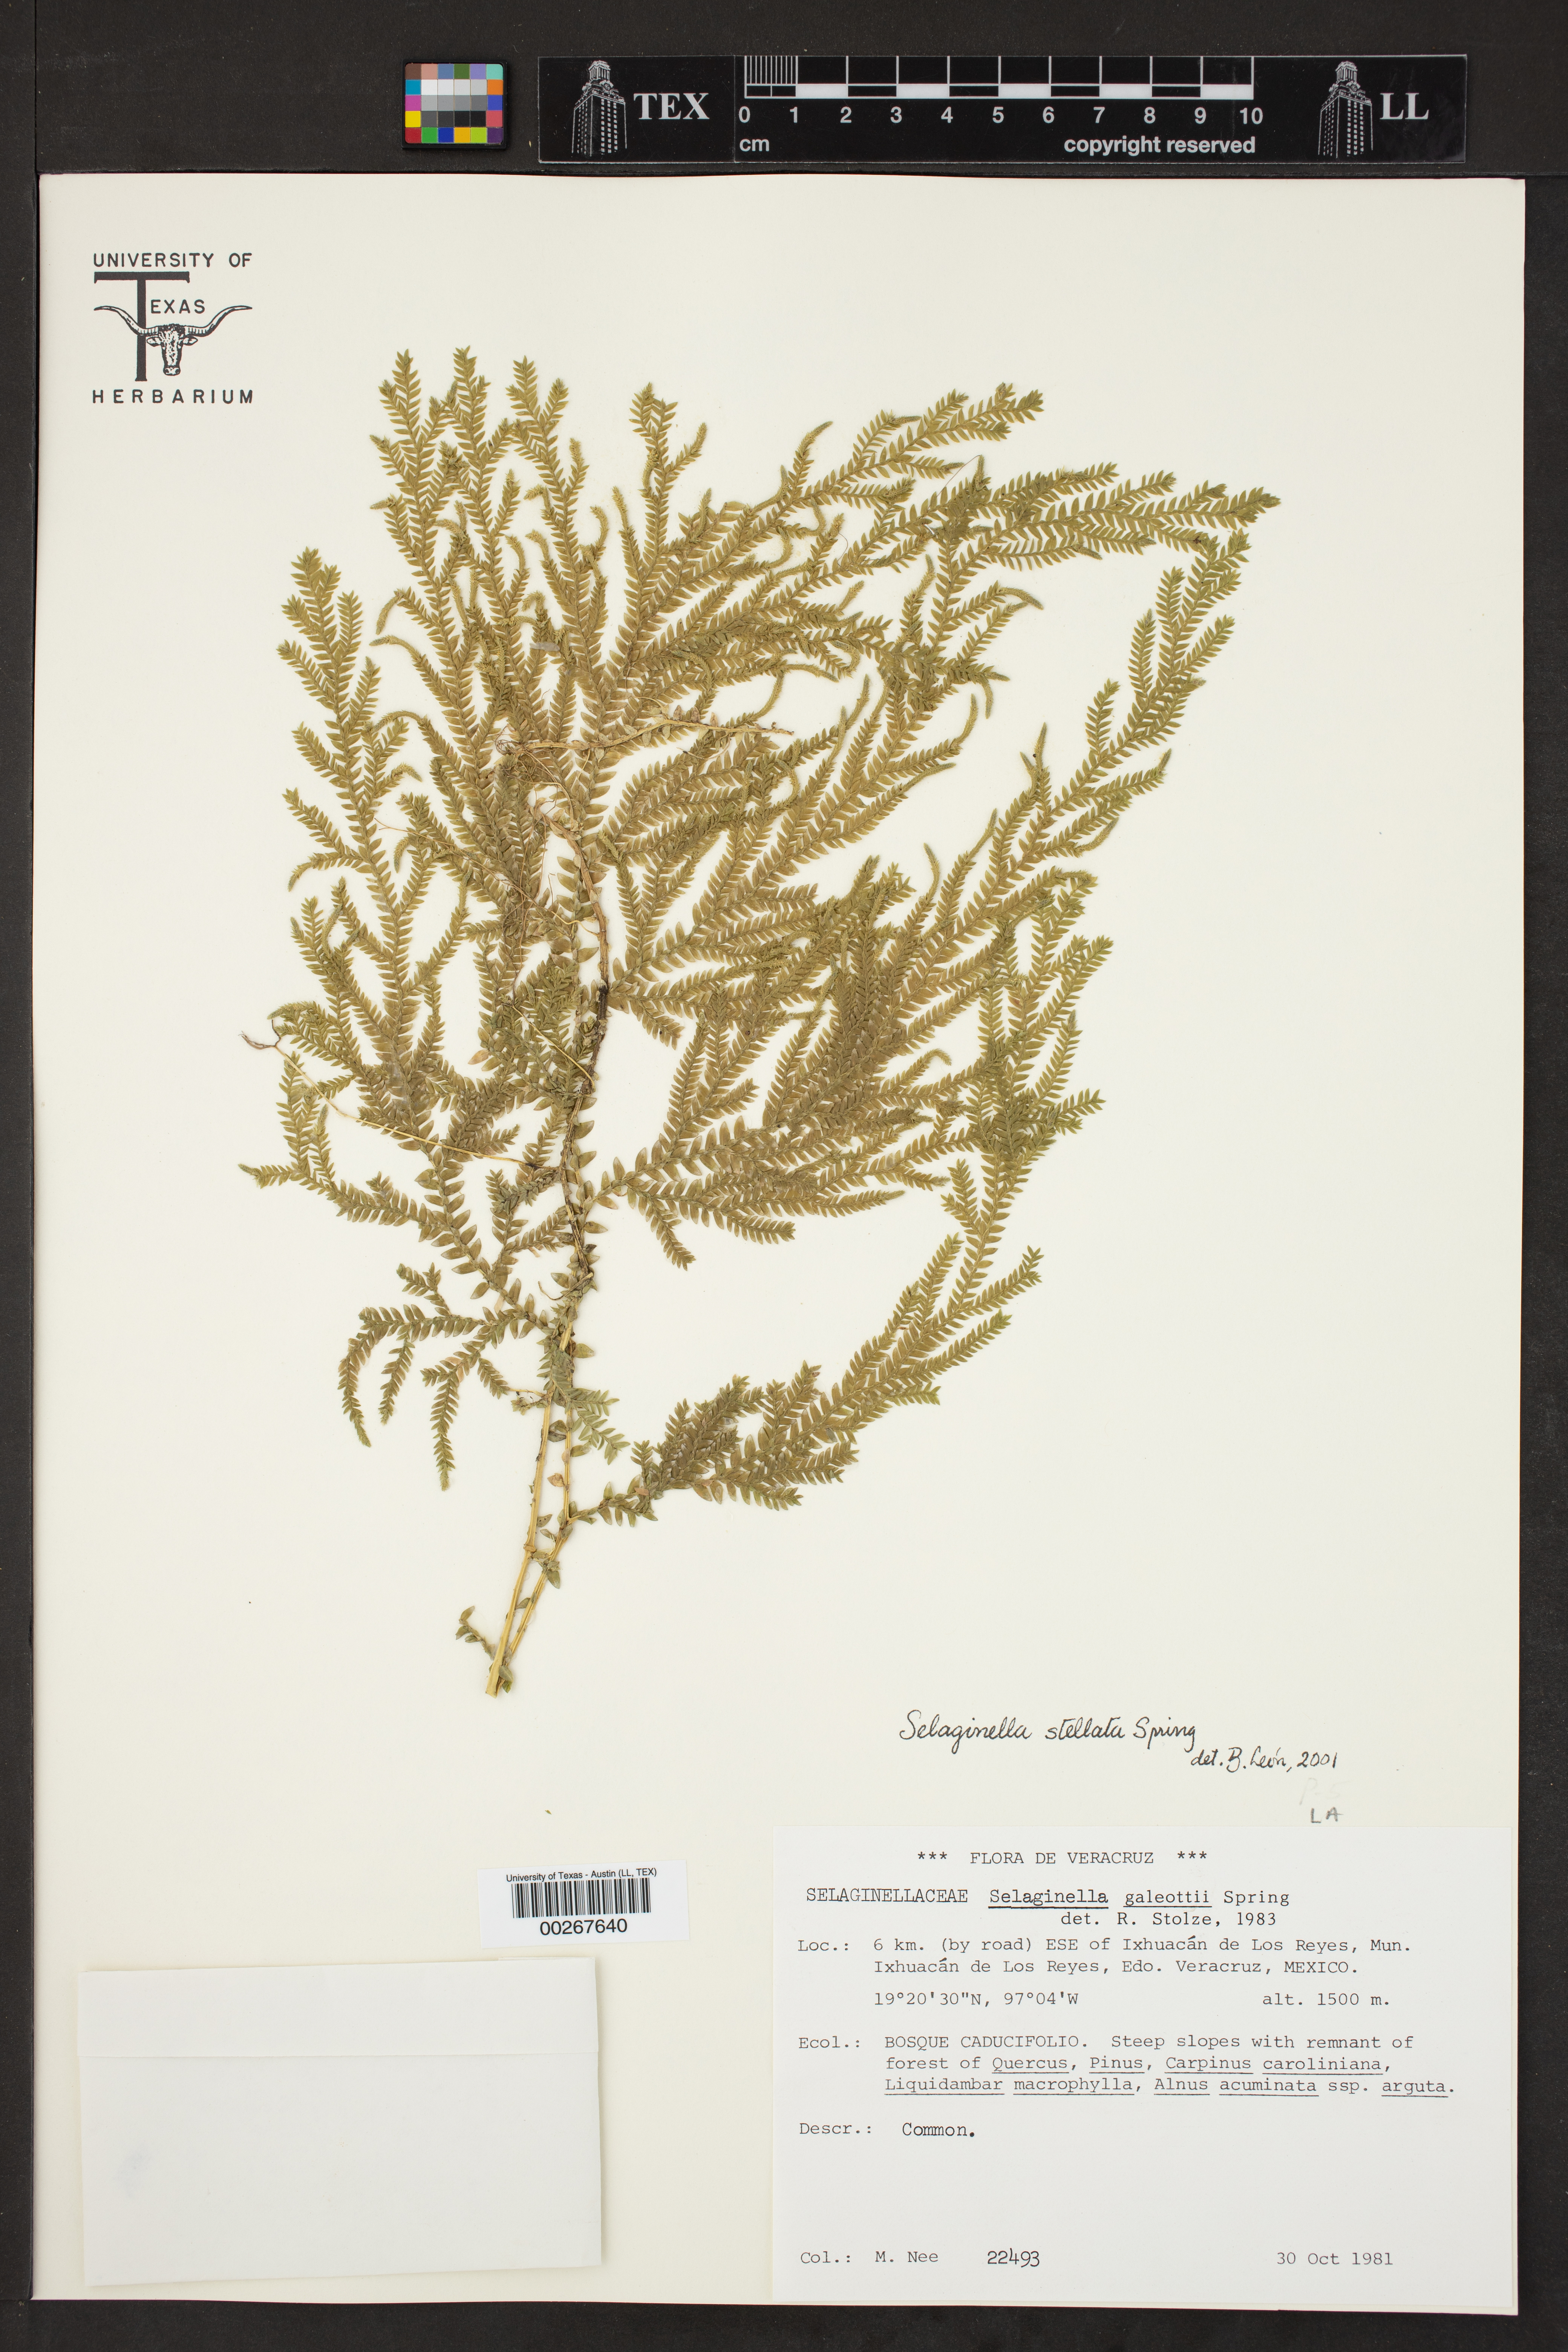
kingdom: Plantae
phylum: Tracheophyta
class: Lycopodiopsida
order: Selaginellales
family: Selaginellaceae
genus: Selaginella
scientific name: Selaginella stellata
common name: Starry spikemoss
